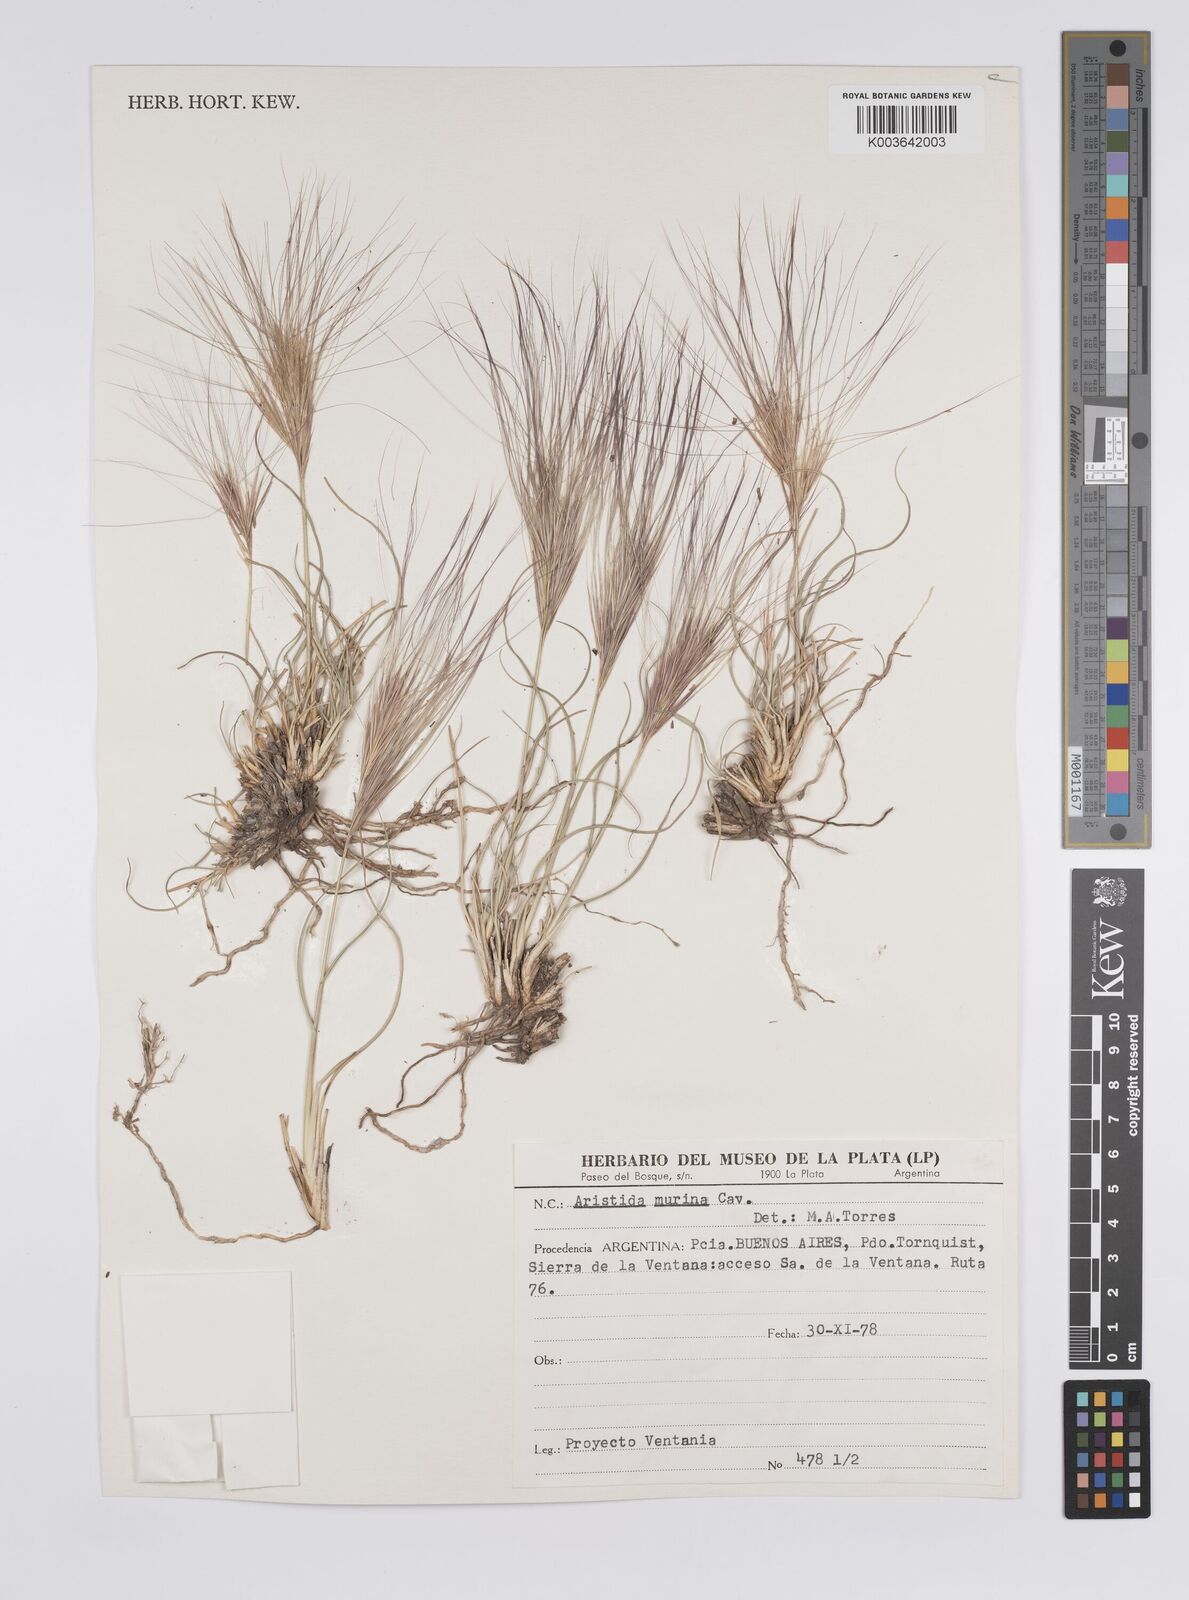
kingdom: Plantae
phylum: Tracheophyta
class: Liliopsida
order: Poales
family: Poaceae
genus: Aristida
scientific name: Aristida murina
